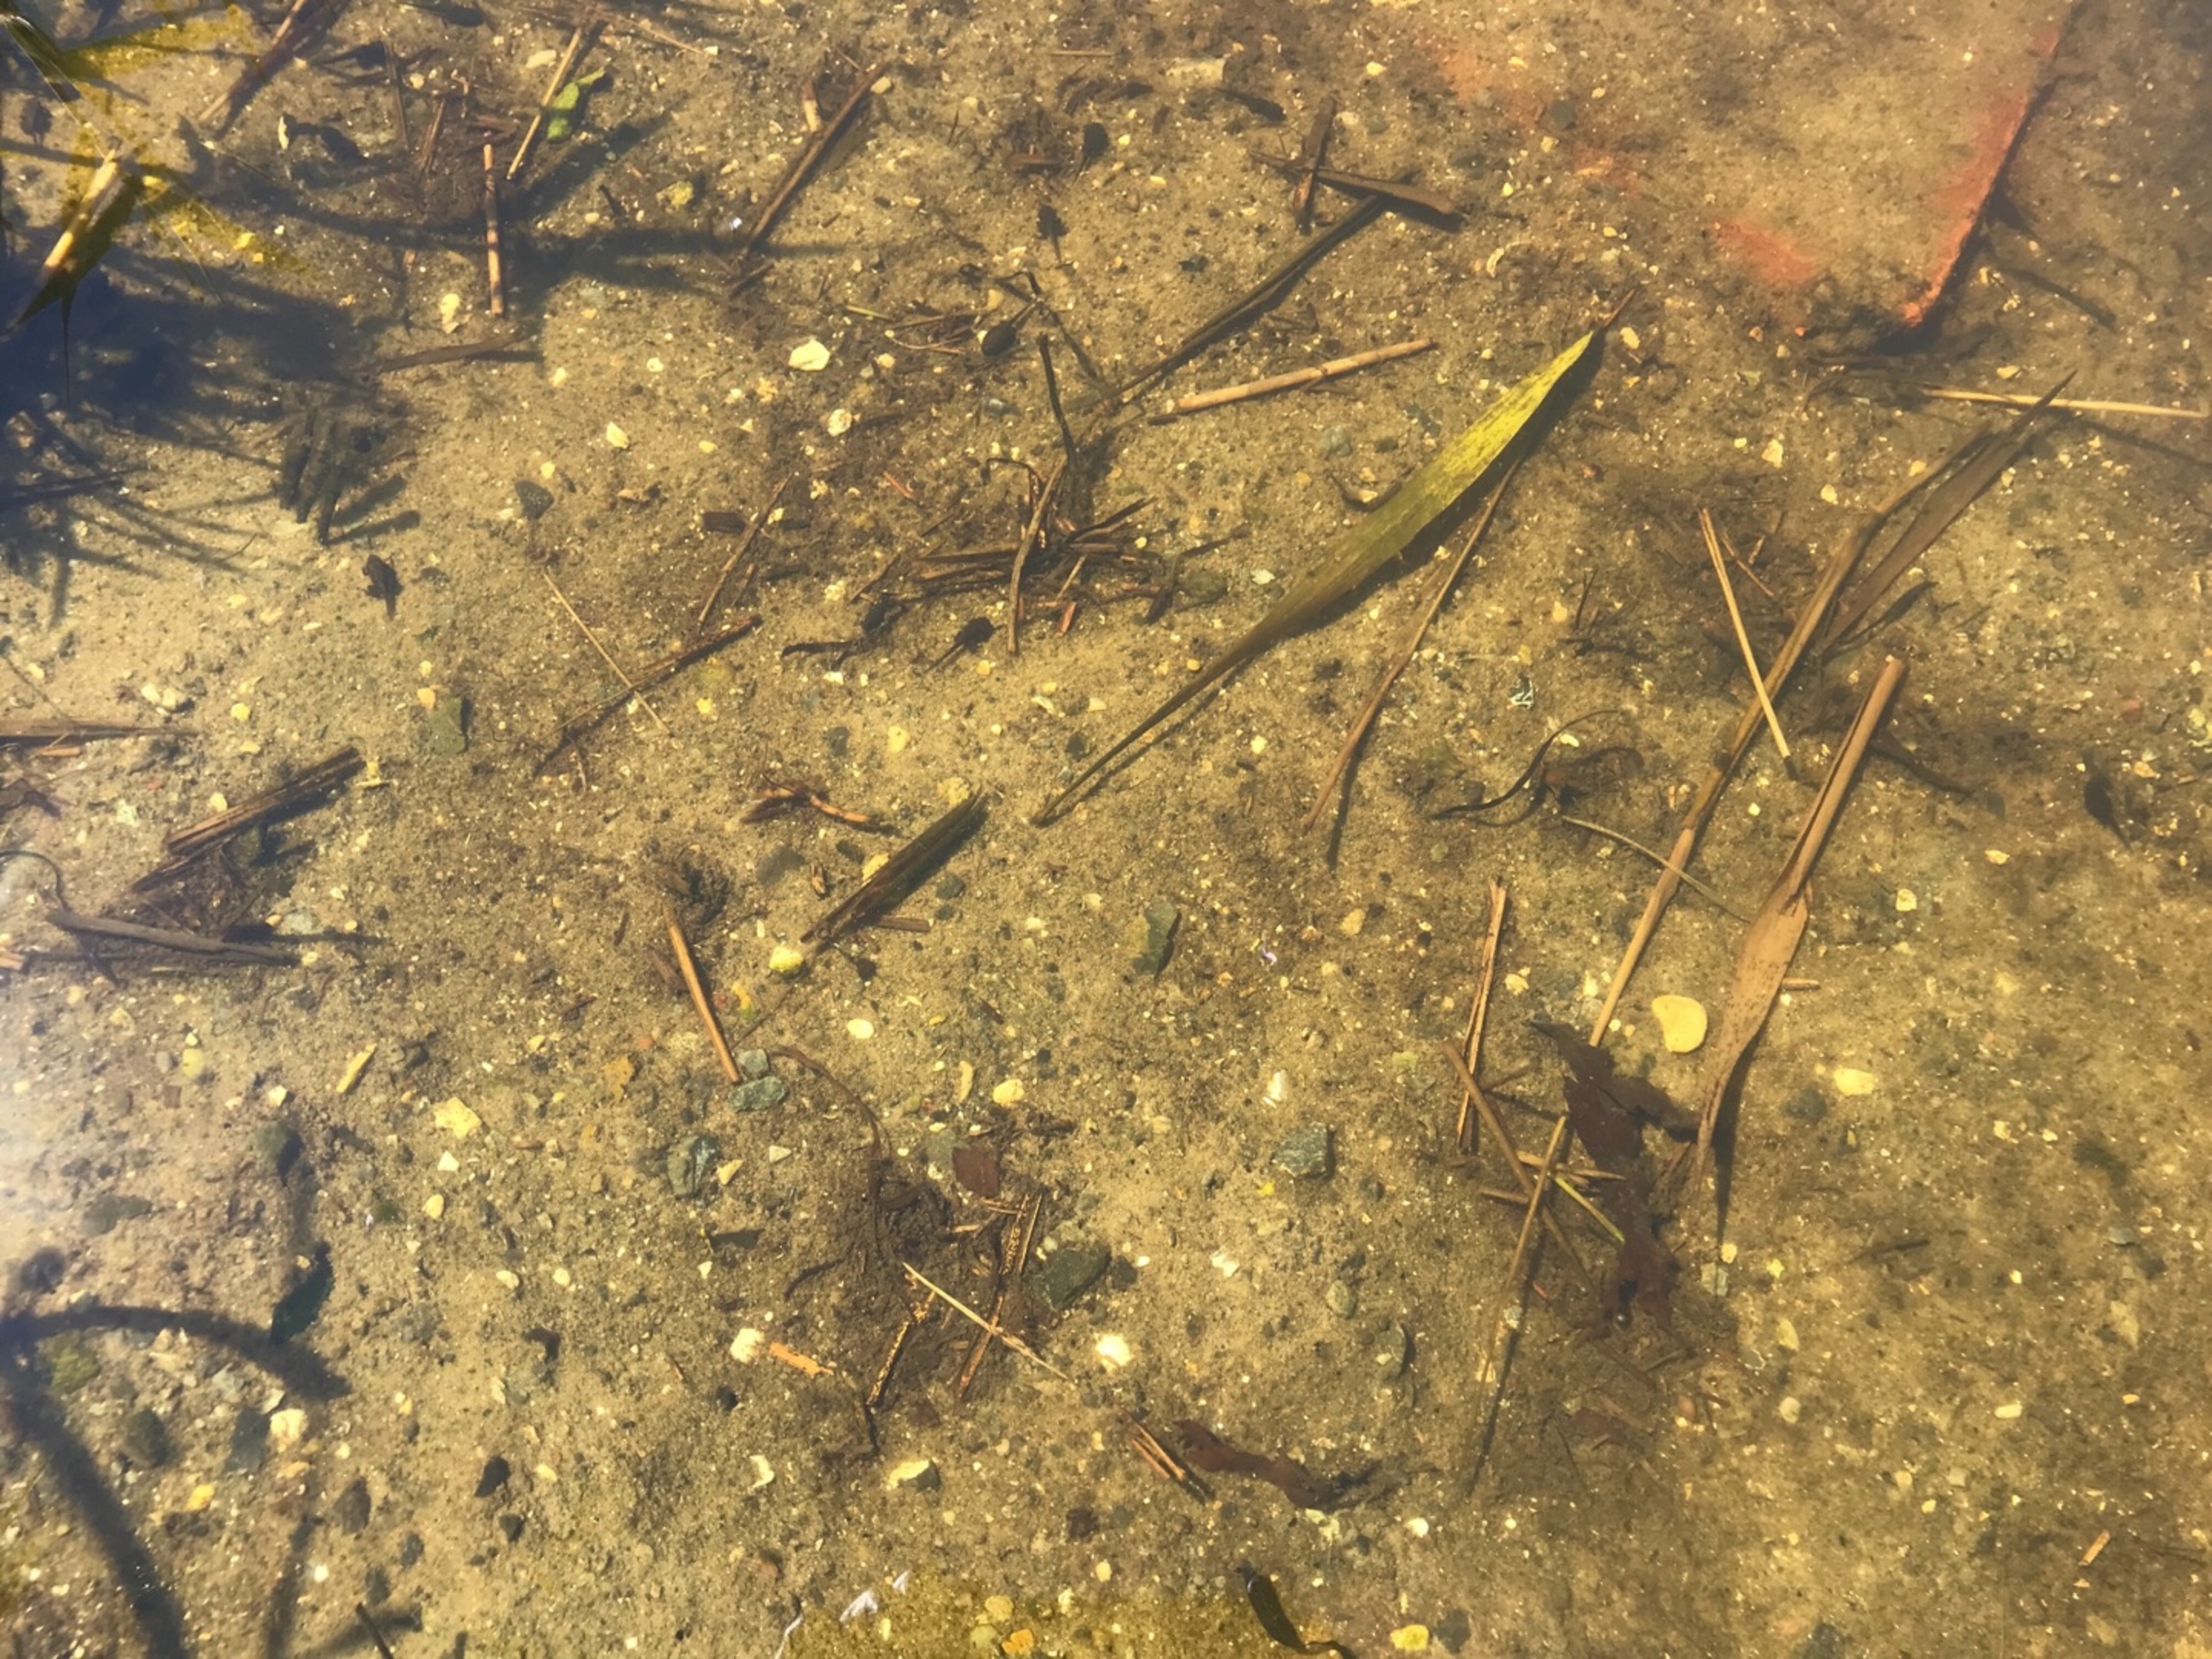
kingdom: Animalia
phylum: Chordata
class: Amphibia
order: Anura
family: Bufonidae
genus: Bufo
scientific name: Bufo bufo
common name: Skrubtudse
